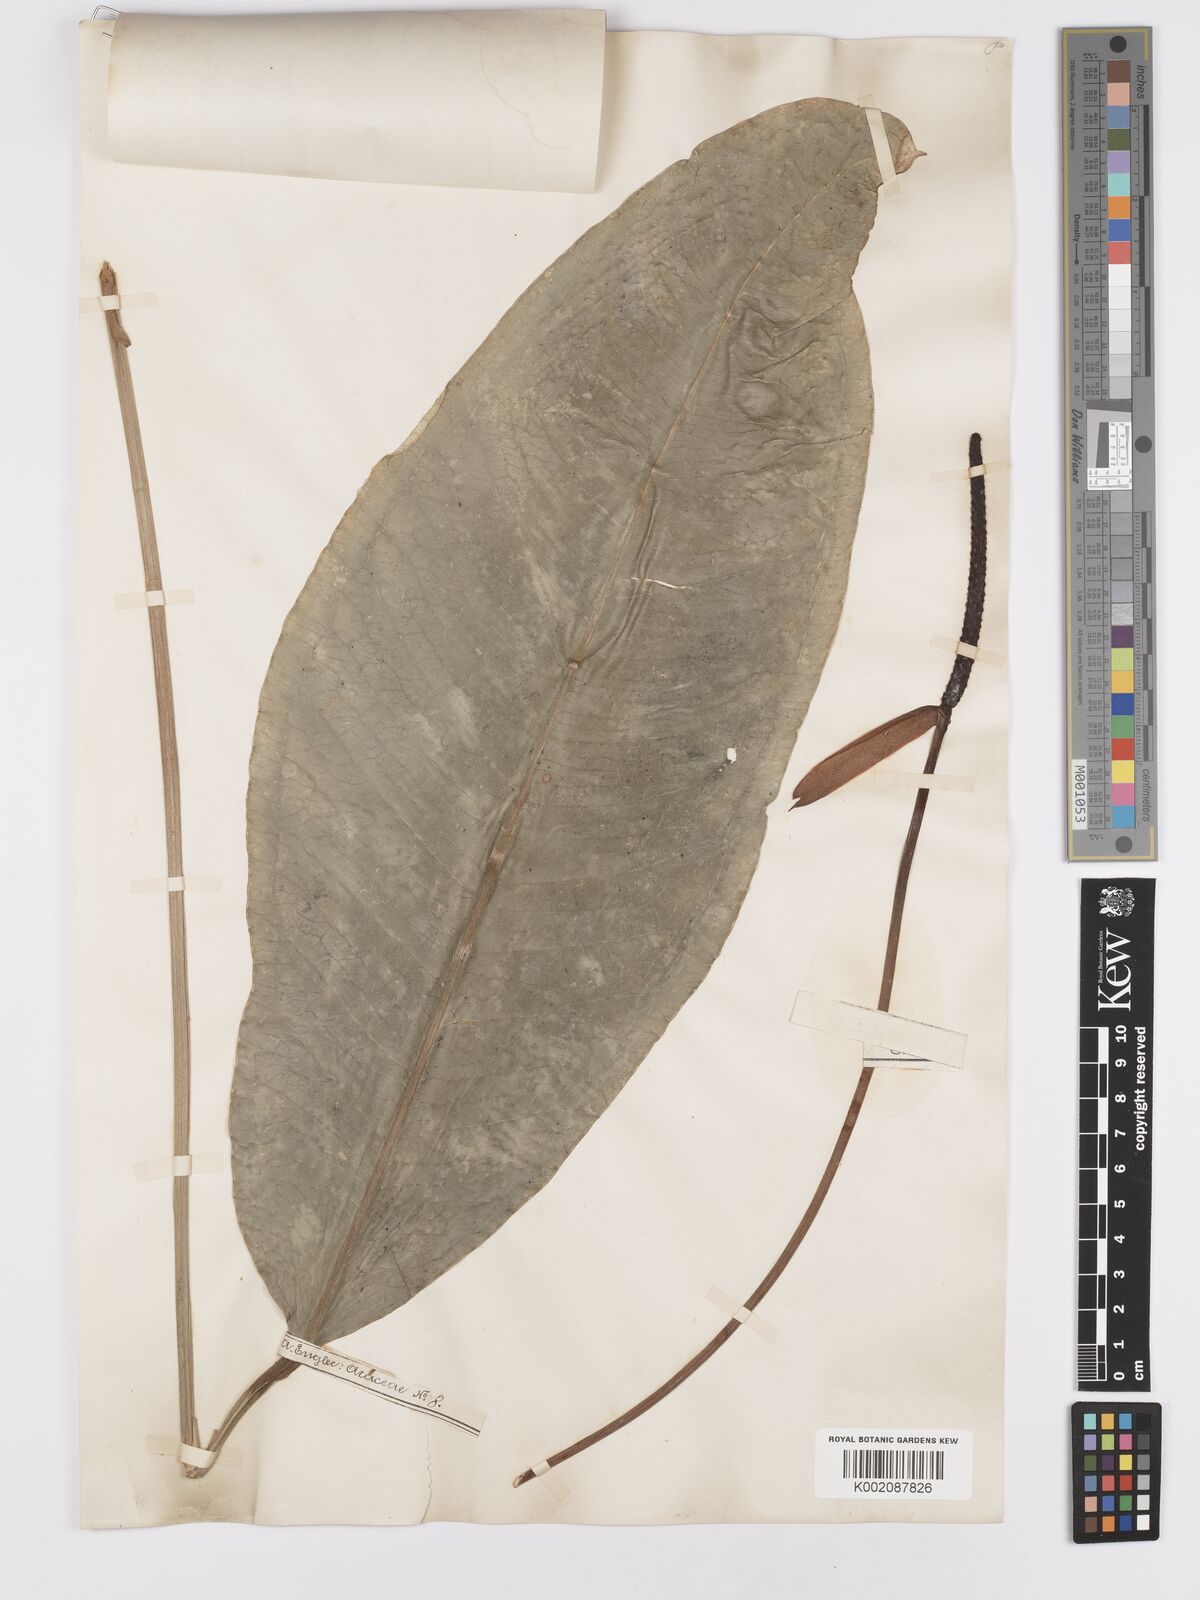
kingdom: Plantae
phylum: Tracheophyta
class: Liliopsida
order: Alismatales
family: Araceae
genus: Anthurium
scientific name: Anthurium parasiticum
